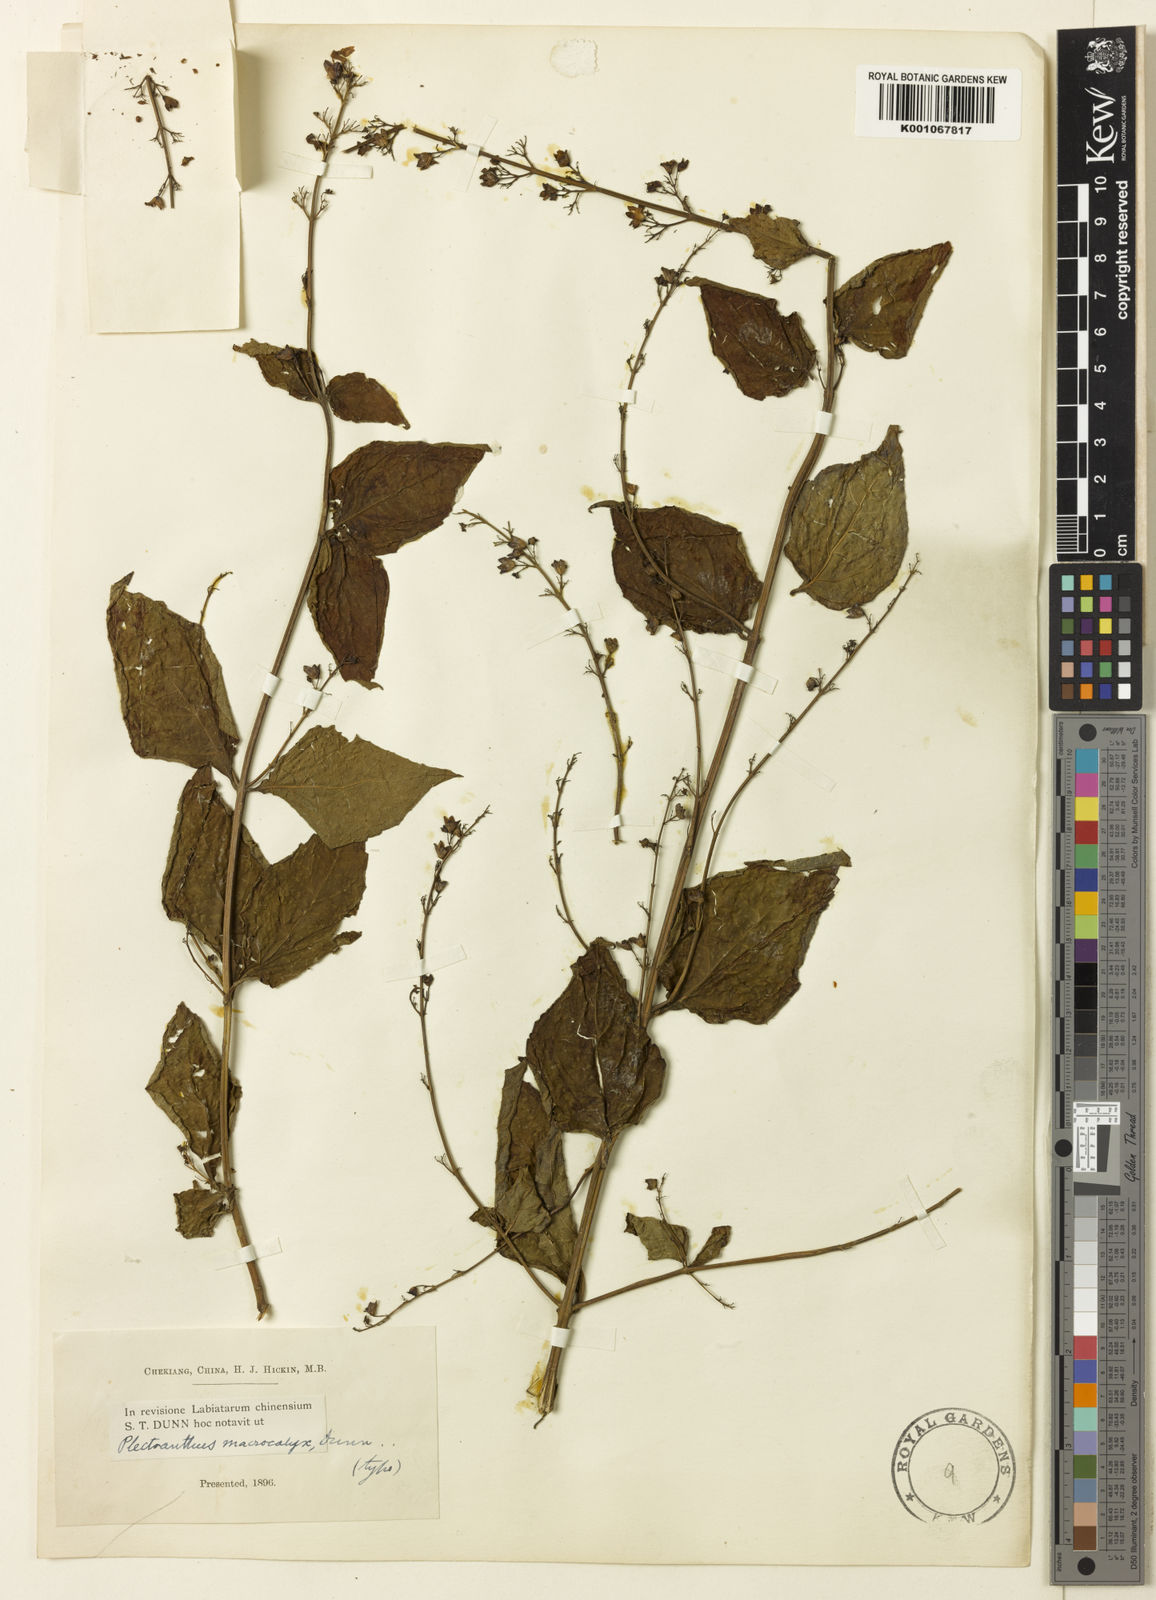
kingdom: Plantae
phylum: Tracheophyta
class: Magnoliopsida
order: Lamiales
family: Lamiaceae
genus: Isodon
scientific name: Isodon
